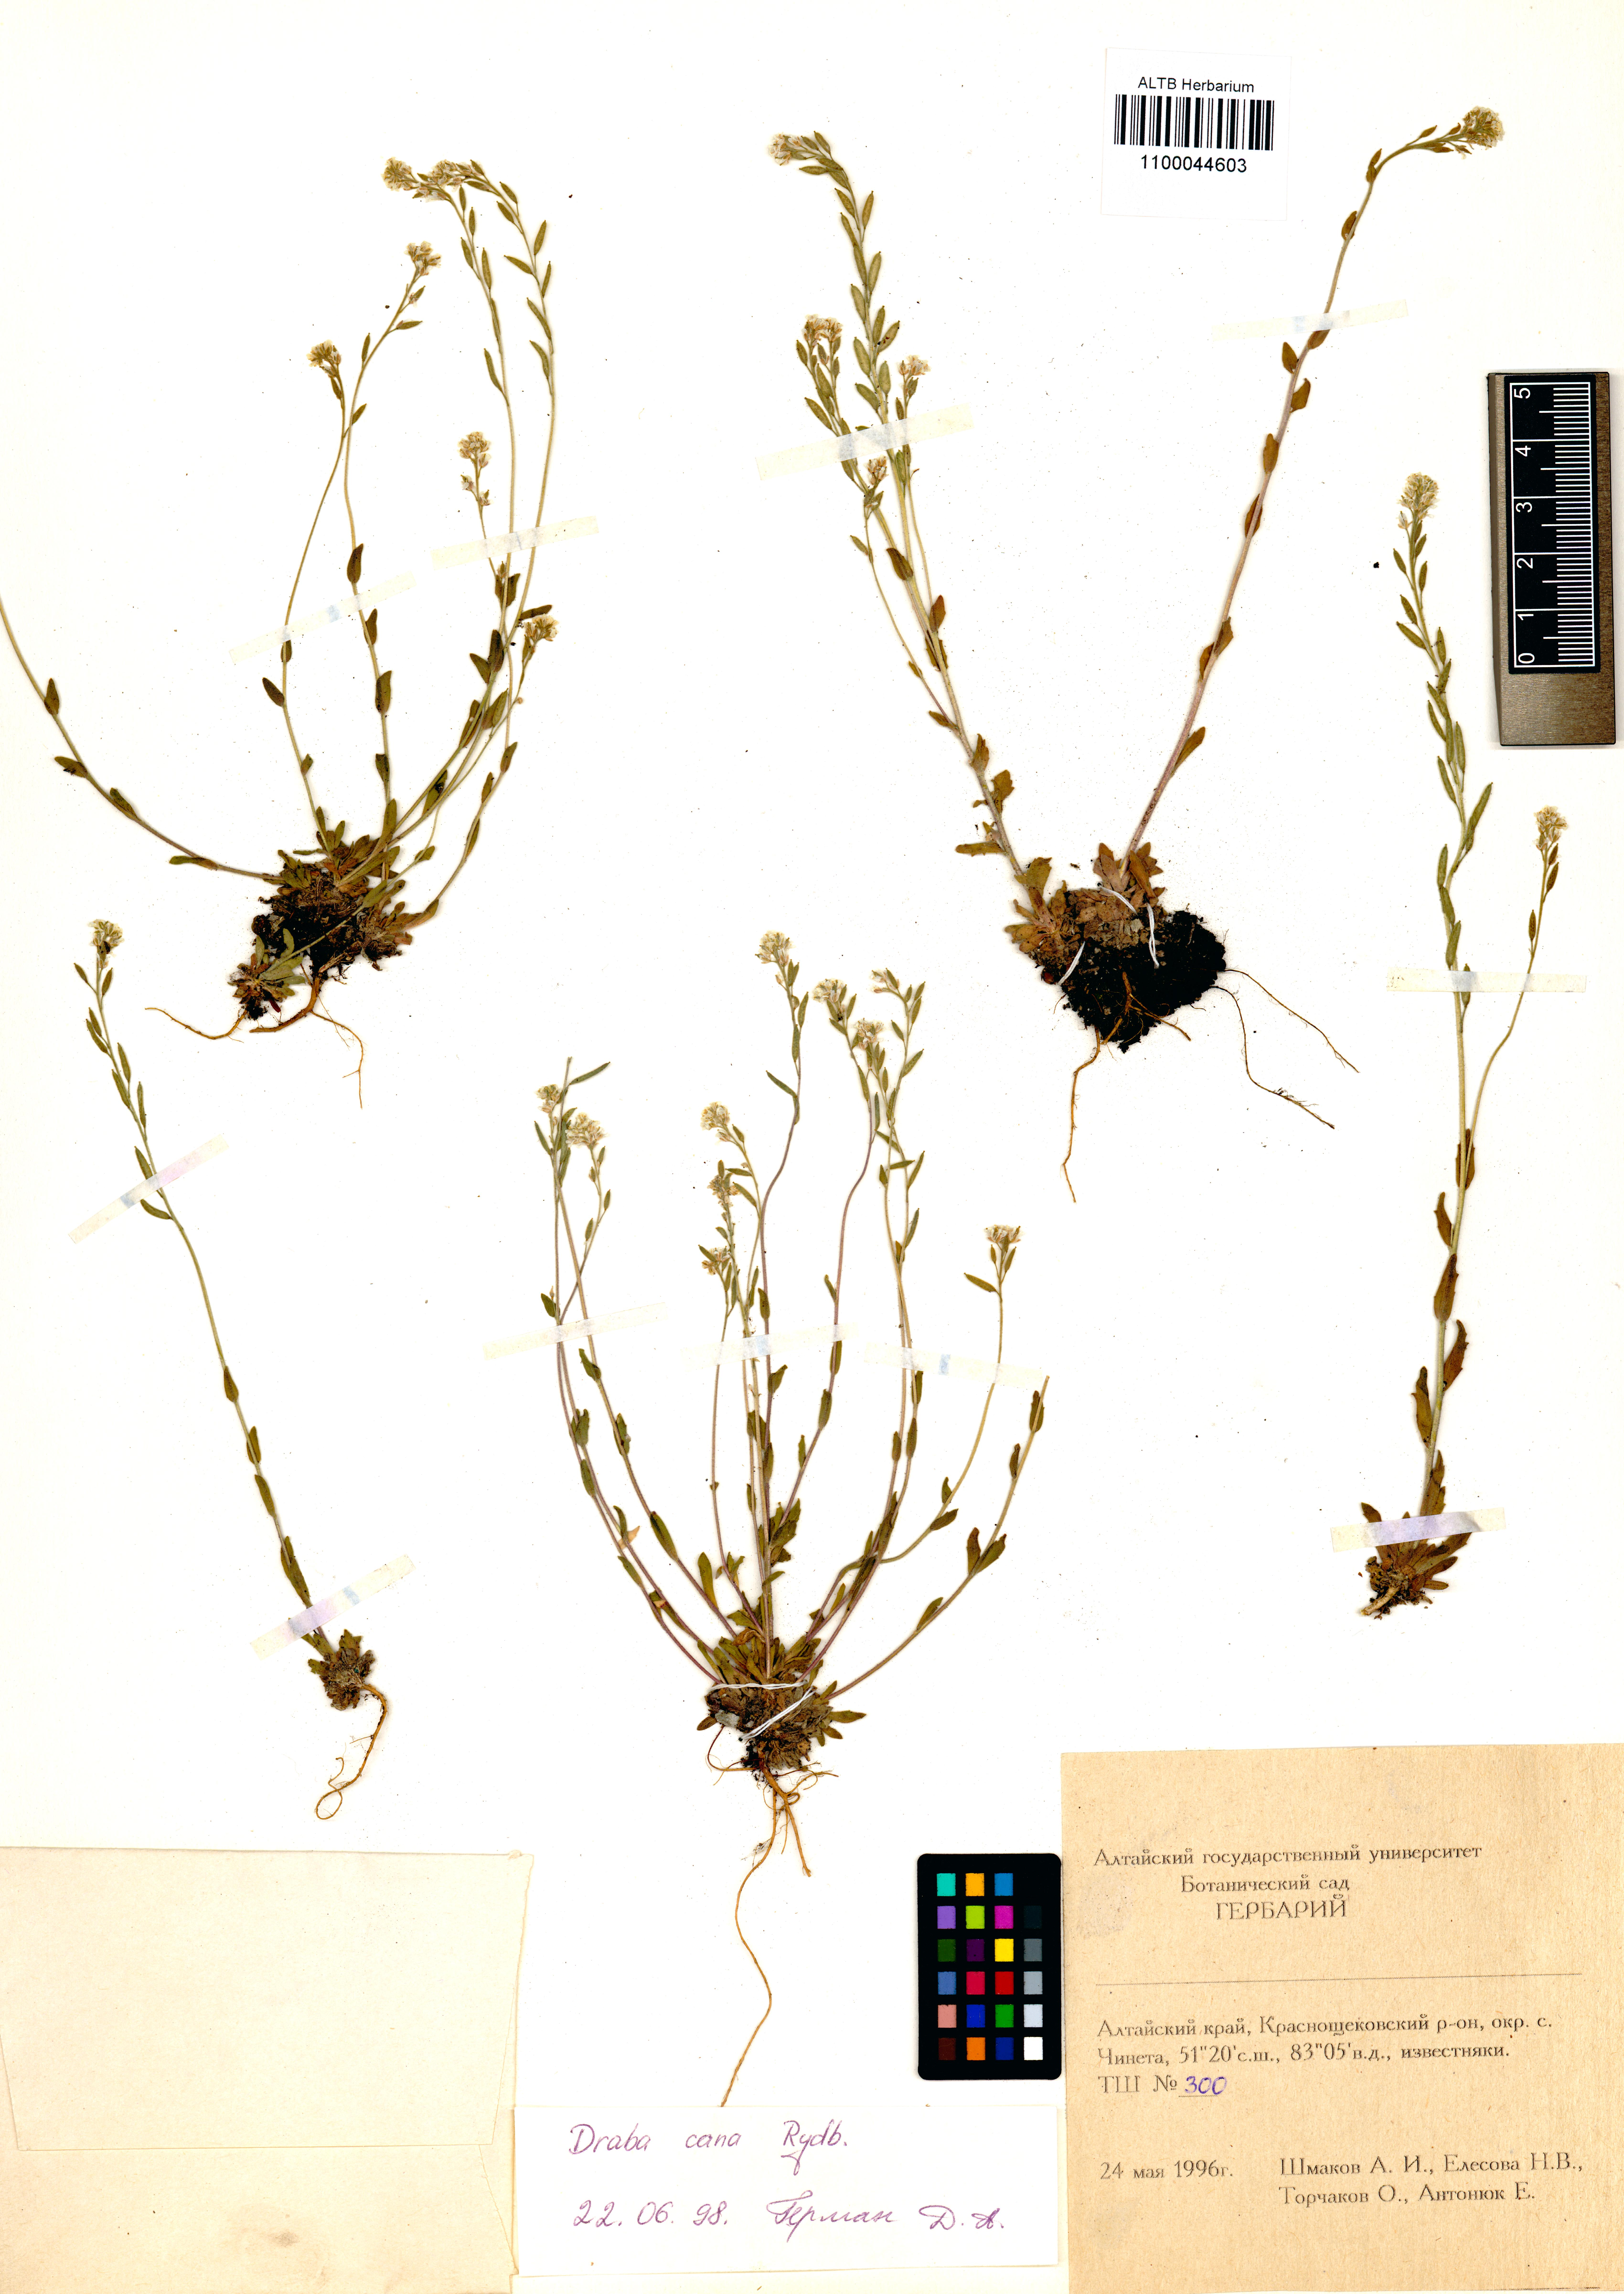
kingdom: Plantae
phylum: Tracheophyta
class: Magnoliopsida
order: Brassicales
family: Brassicaceae
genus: Draba
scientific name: Draba cana
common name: Hoary draba
